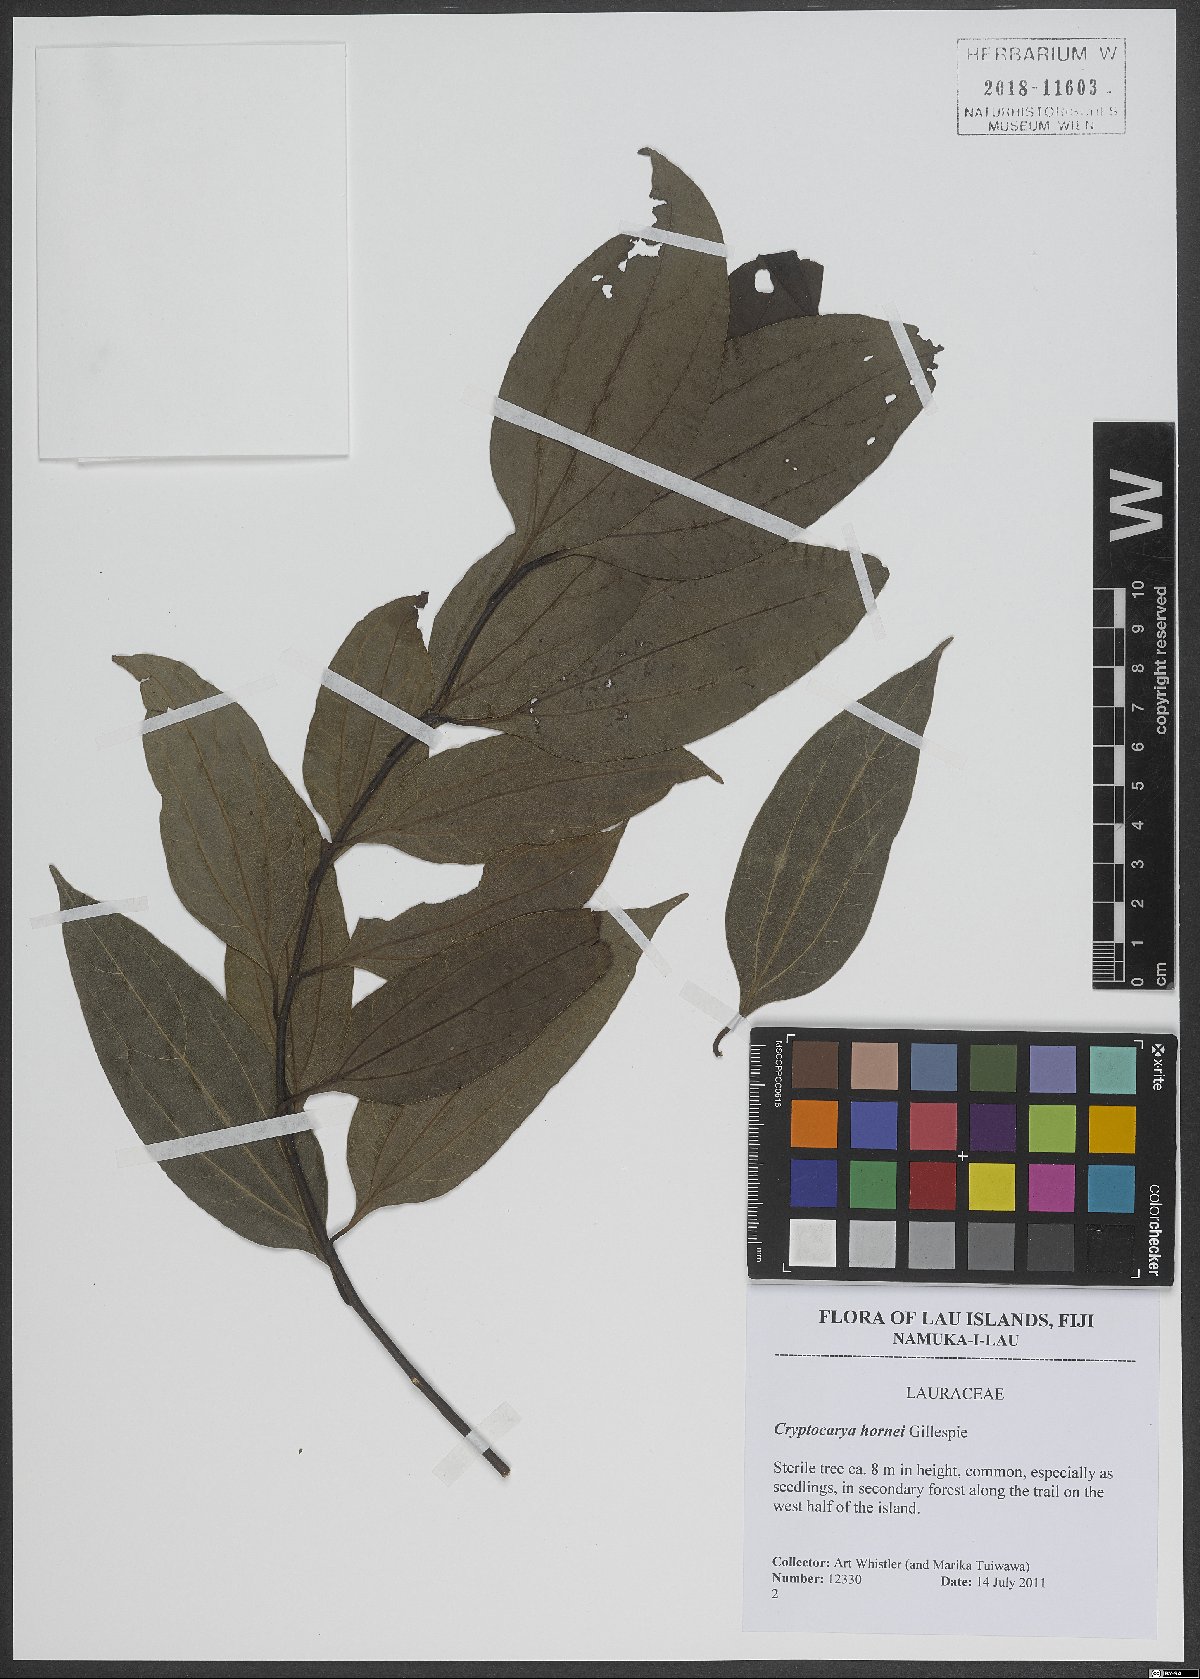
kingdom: Plantae
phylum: Tracheophyta
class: Magnoliopsida
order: Laurales
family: Lauraceae
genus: Cryptocarya
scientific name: Cryptocarya hornei
